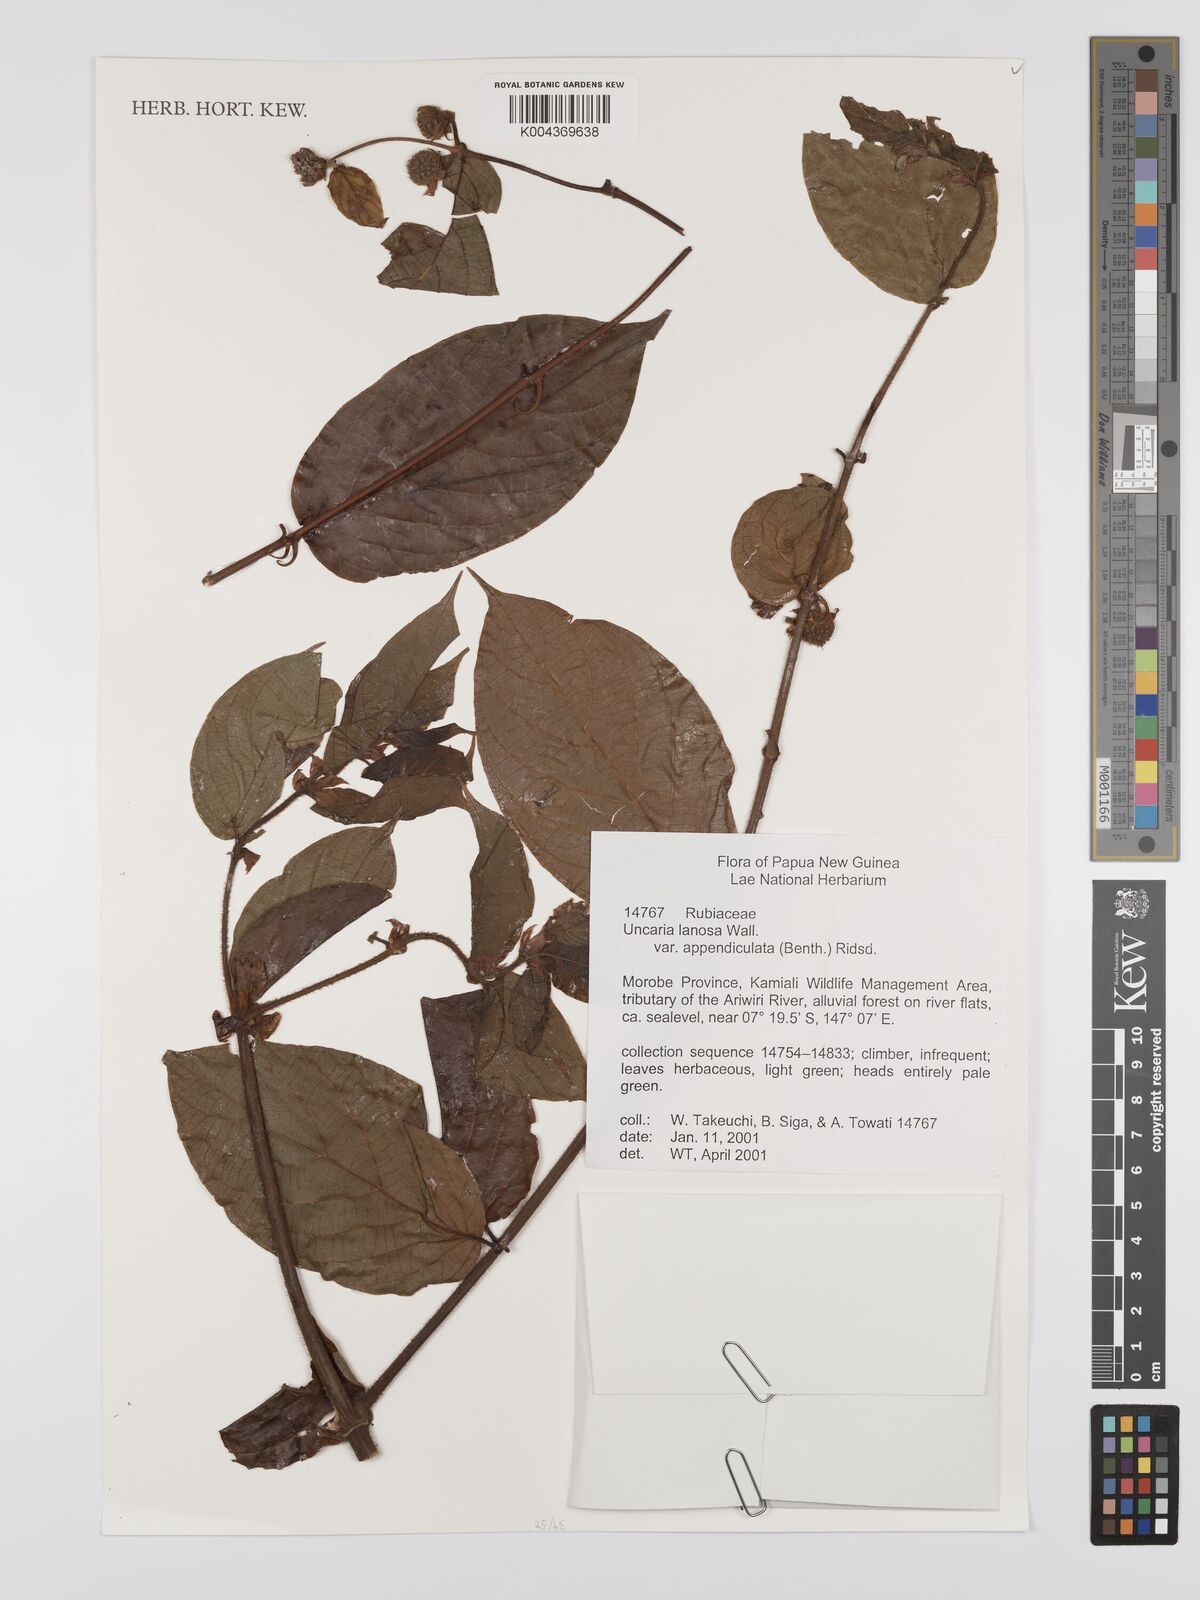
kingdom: Plantae
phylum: Tracheophyta
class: Magnoliopsida
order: Gentianales
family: Rubiaceae
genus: Uncaria
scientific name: Uncaria lanosa
